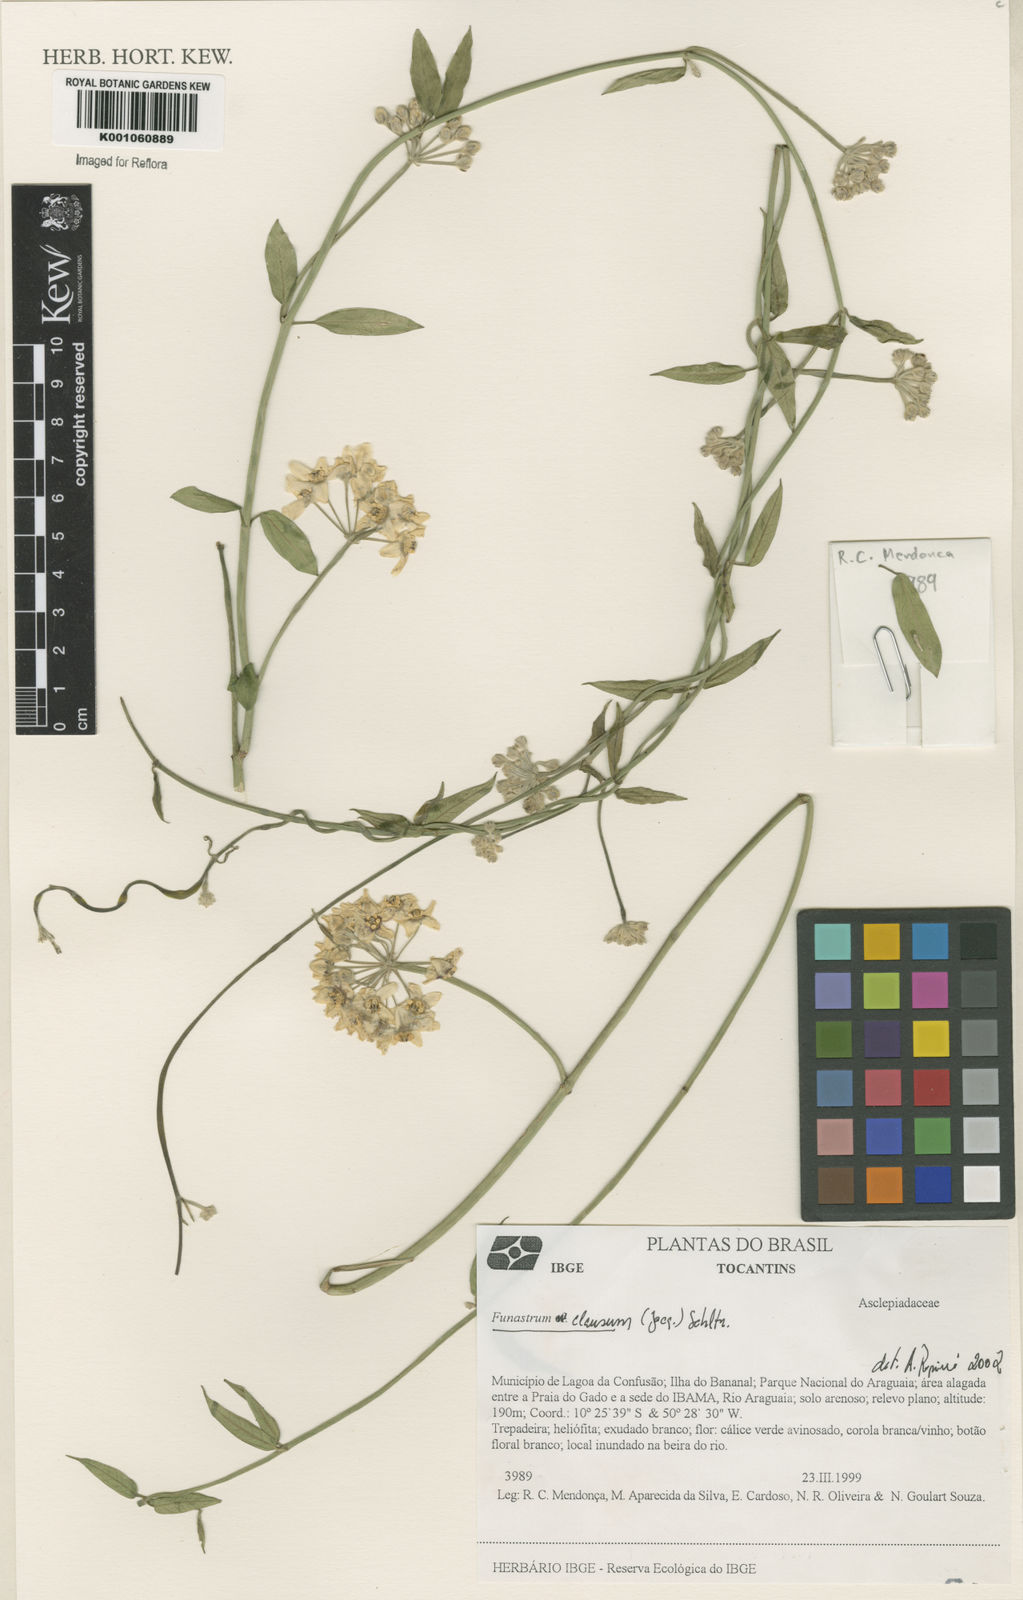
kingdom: Plantae
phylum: Tracheophyta
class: Magnoliopsida
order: Gentianales
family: Apocynaceae
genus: Funastrum
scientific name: Funastrum clausum
